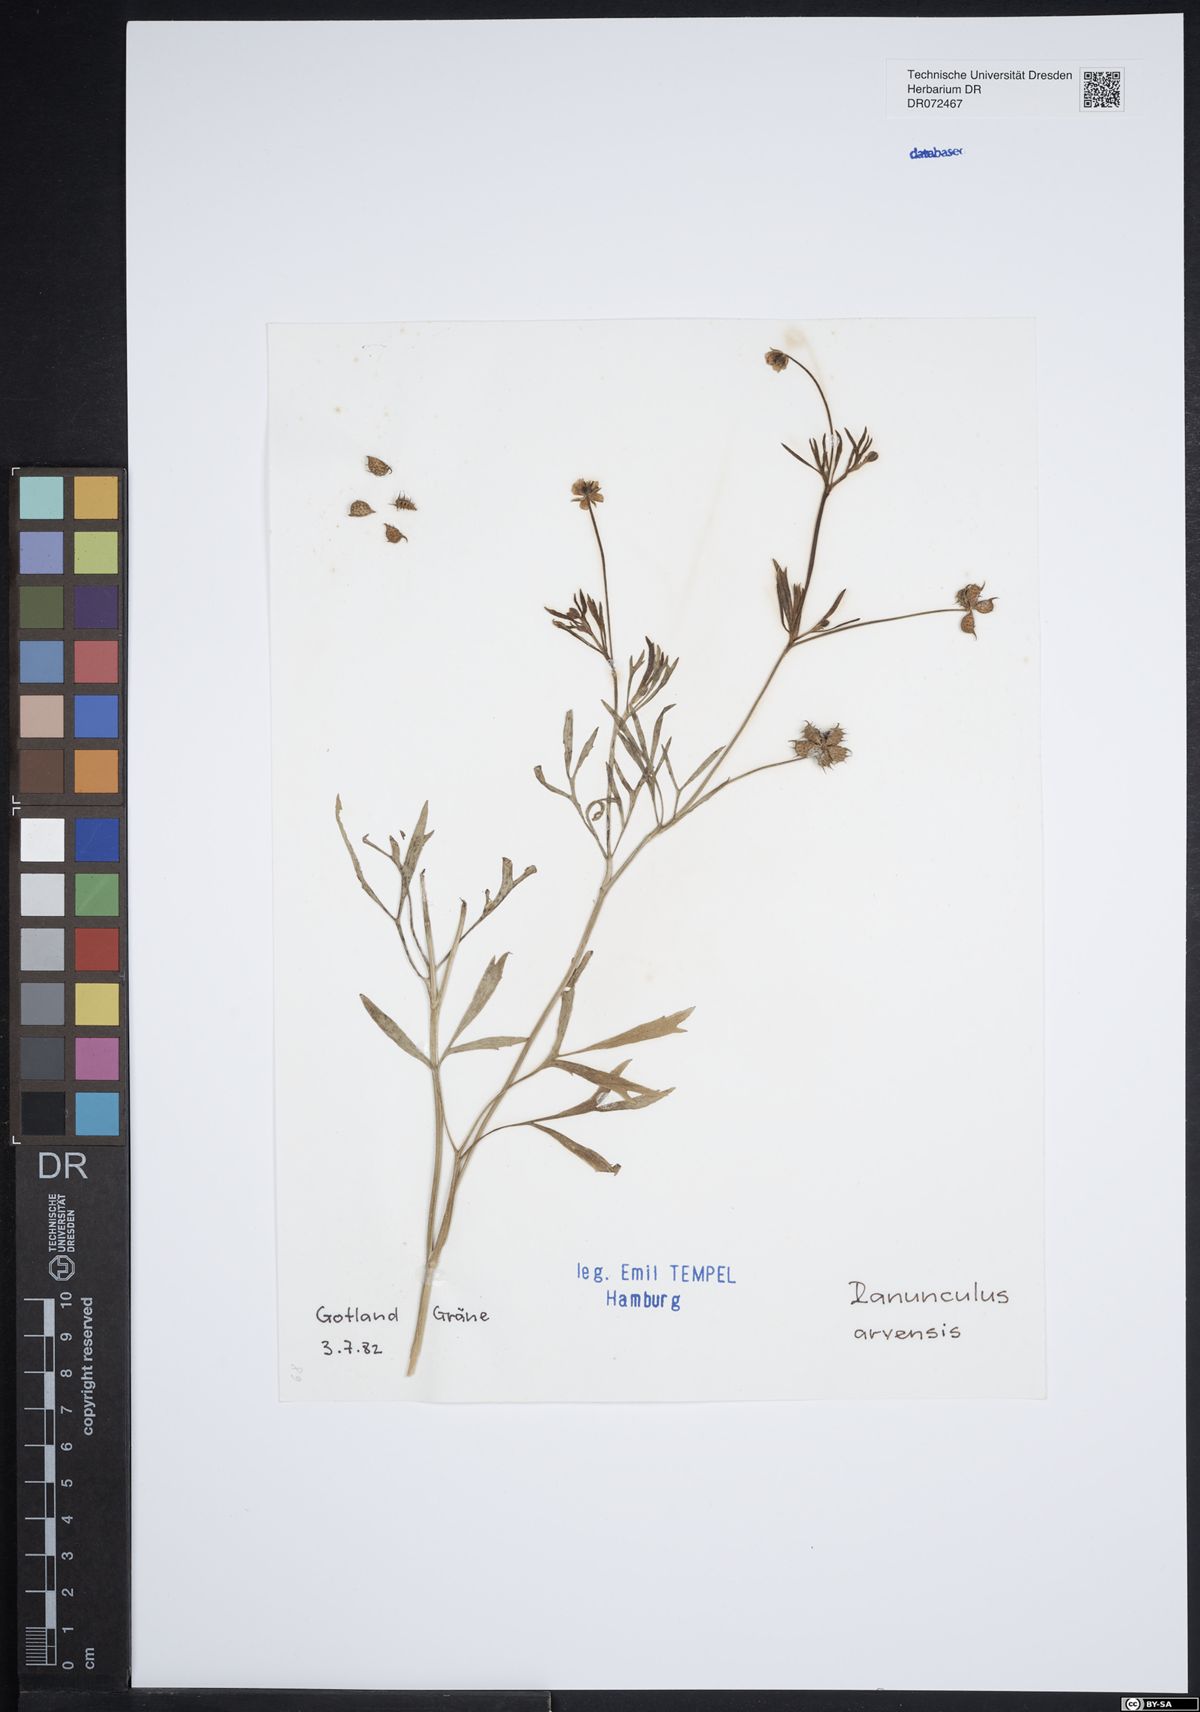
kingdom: Plantae
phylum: Tracheophyta
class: Magnoliopsida
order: Ranunculales
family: Ranunculaceae
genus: Ranunculus
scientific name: Ranunculus arvensis
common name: Corn buttercup
